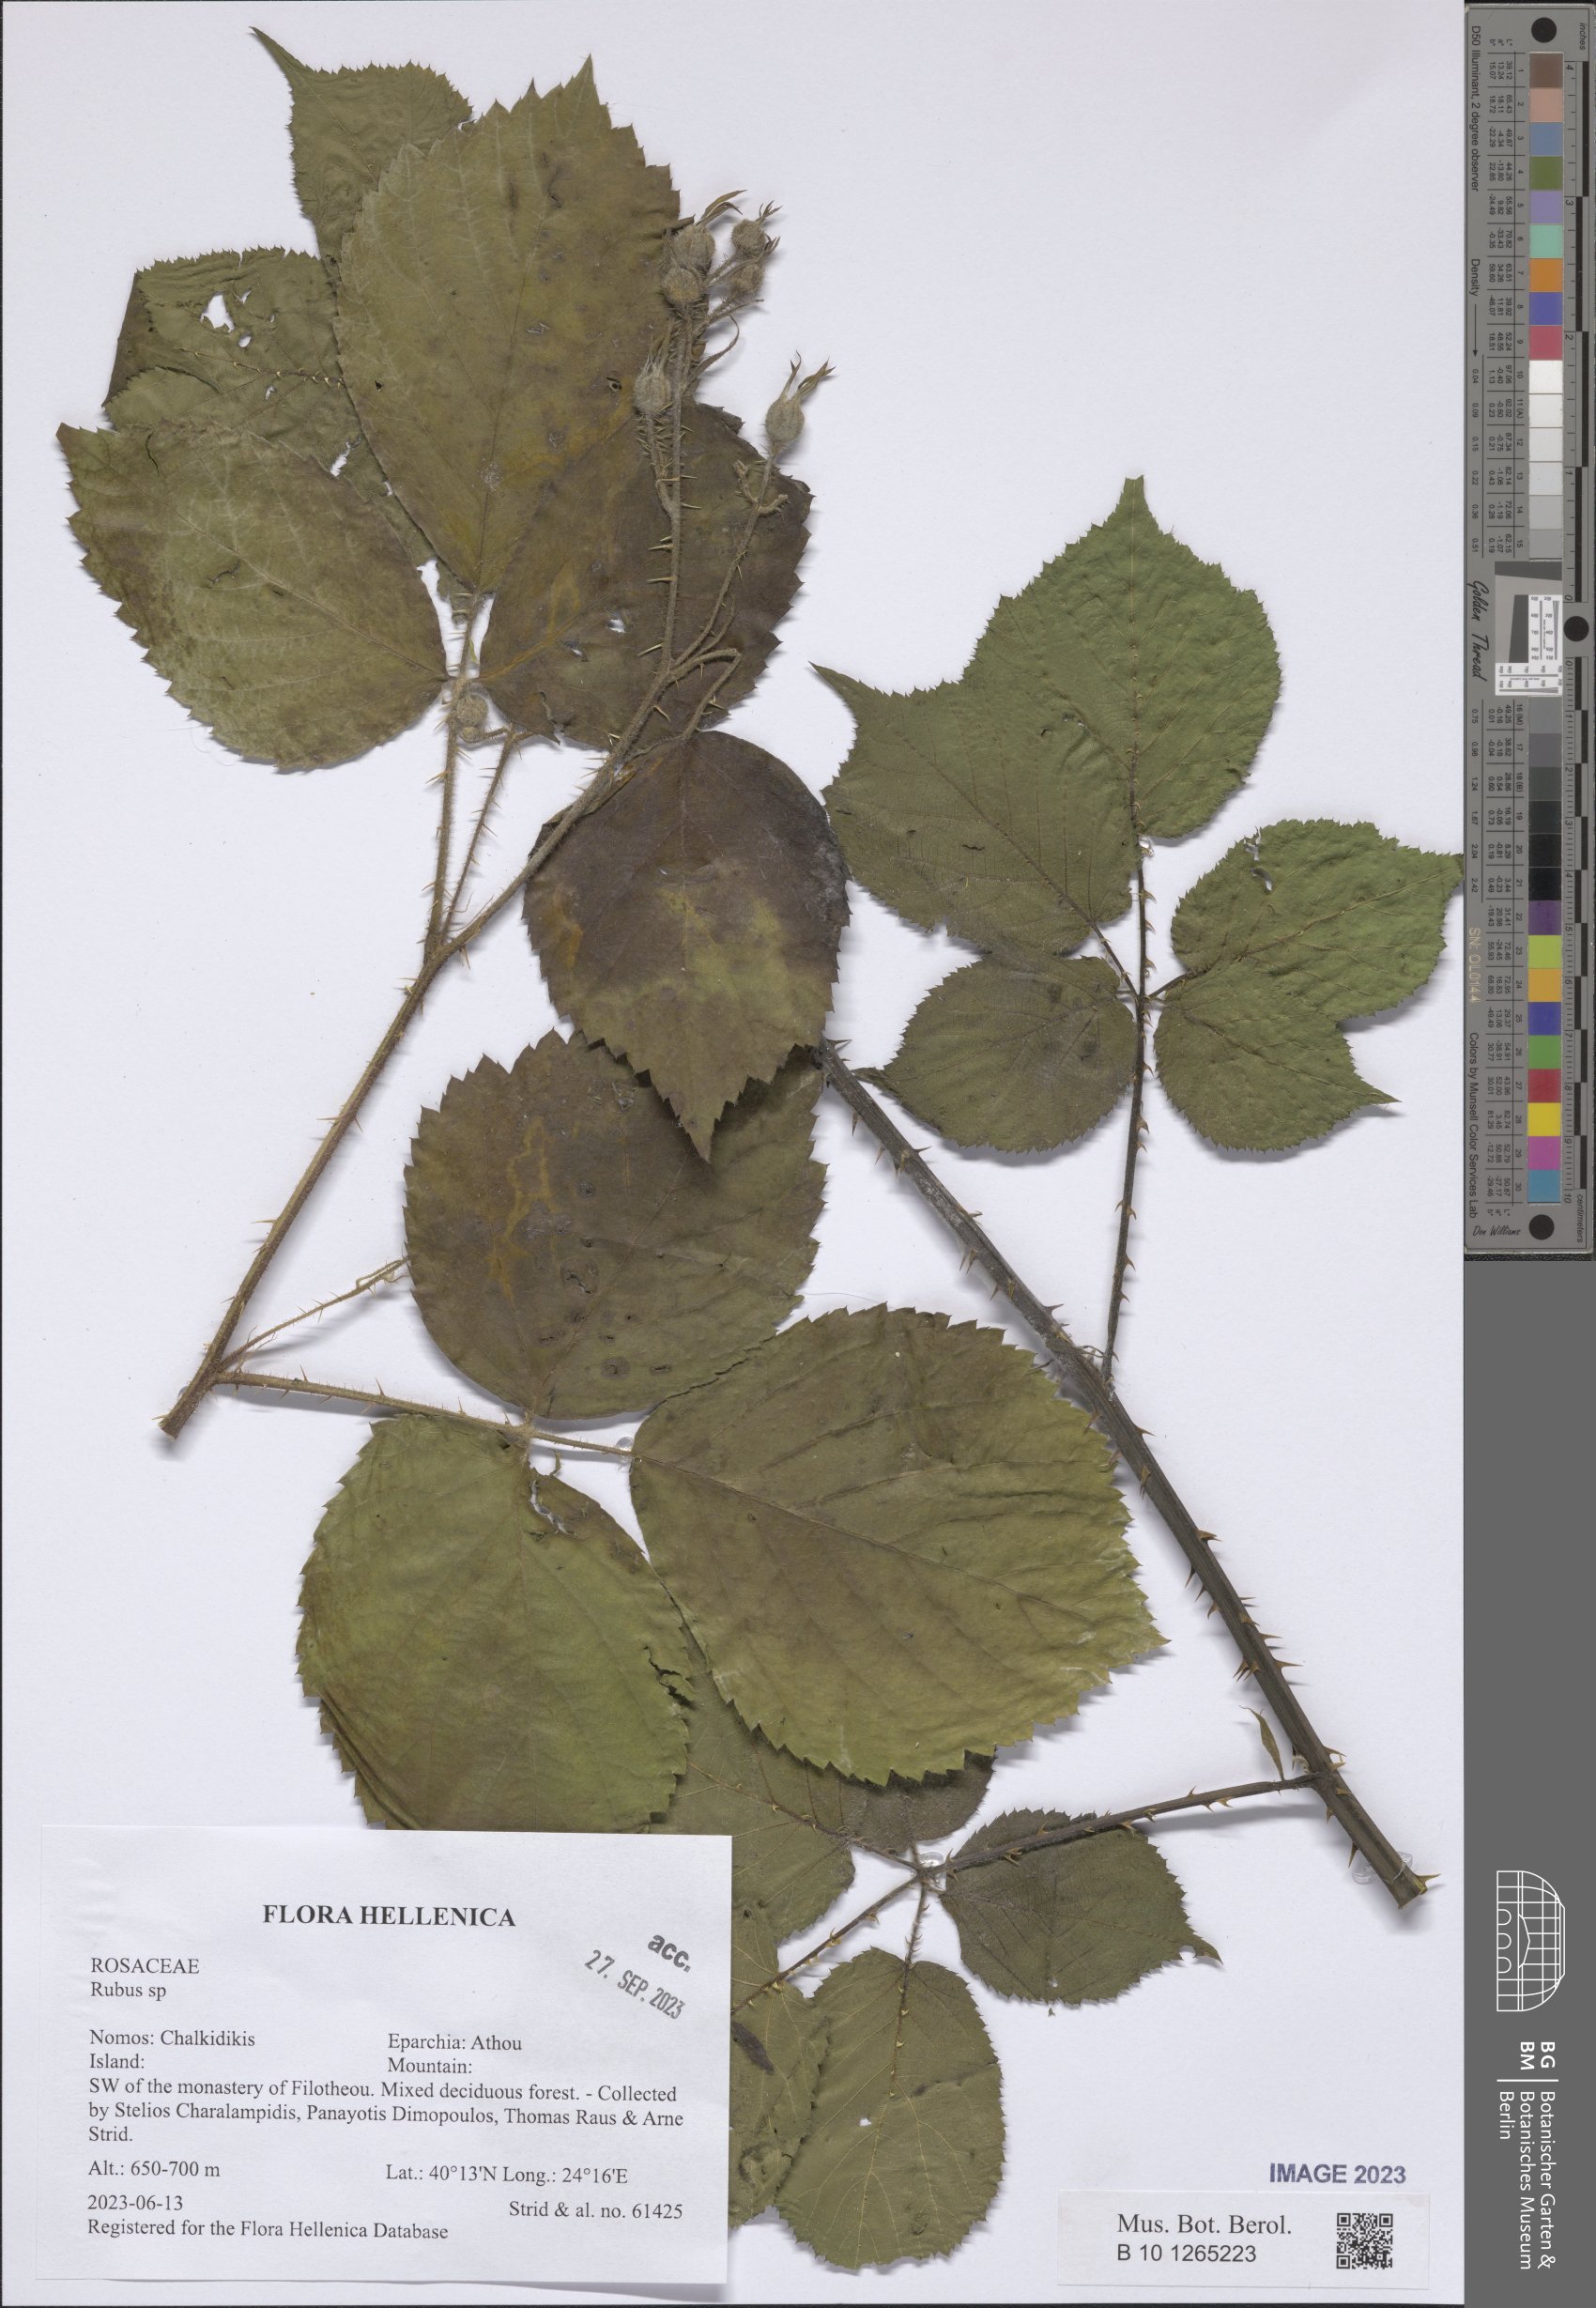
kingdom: Plantae
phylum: Tracheophyta
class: Magnoliopsida
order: Rosales
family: Rosaceae
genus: Rubus
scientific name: Rubus
